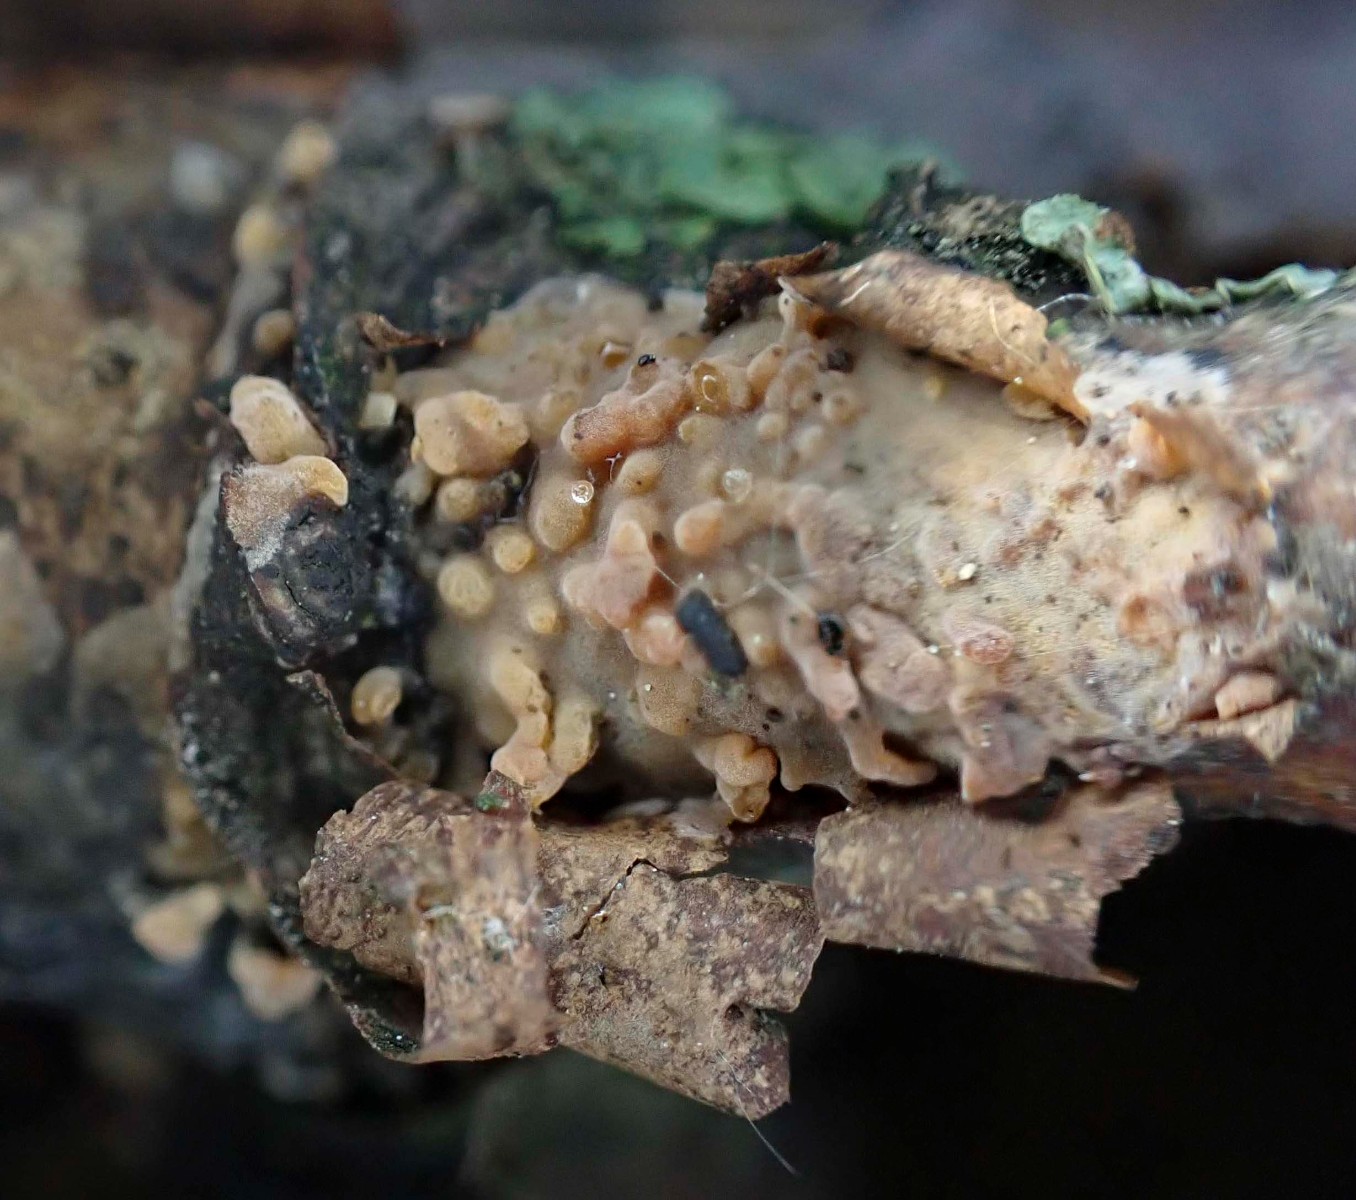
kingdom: Fungi
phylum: Basidiomycota
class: Agaricomycetes
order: Russulales
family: Peniophoraceae
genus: Peniophora
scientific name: Peniophora laeta
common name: tandet voksskind
